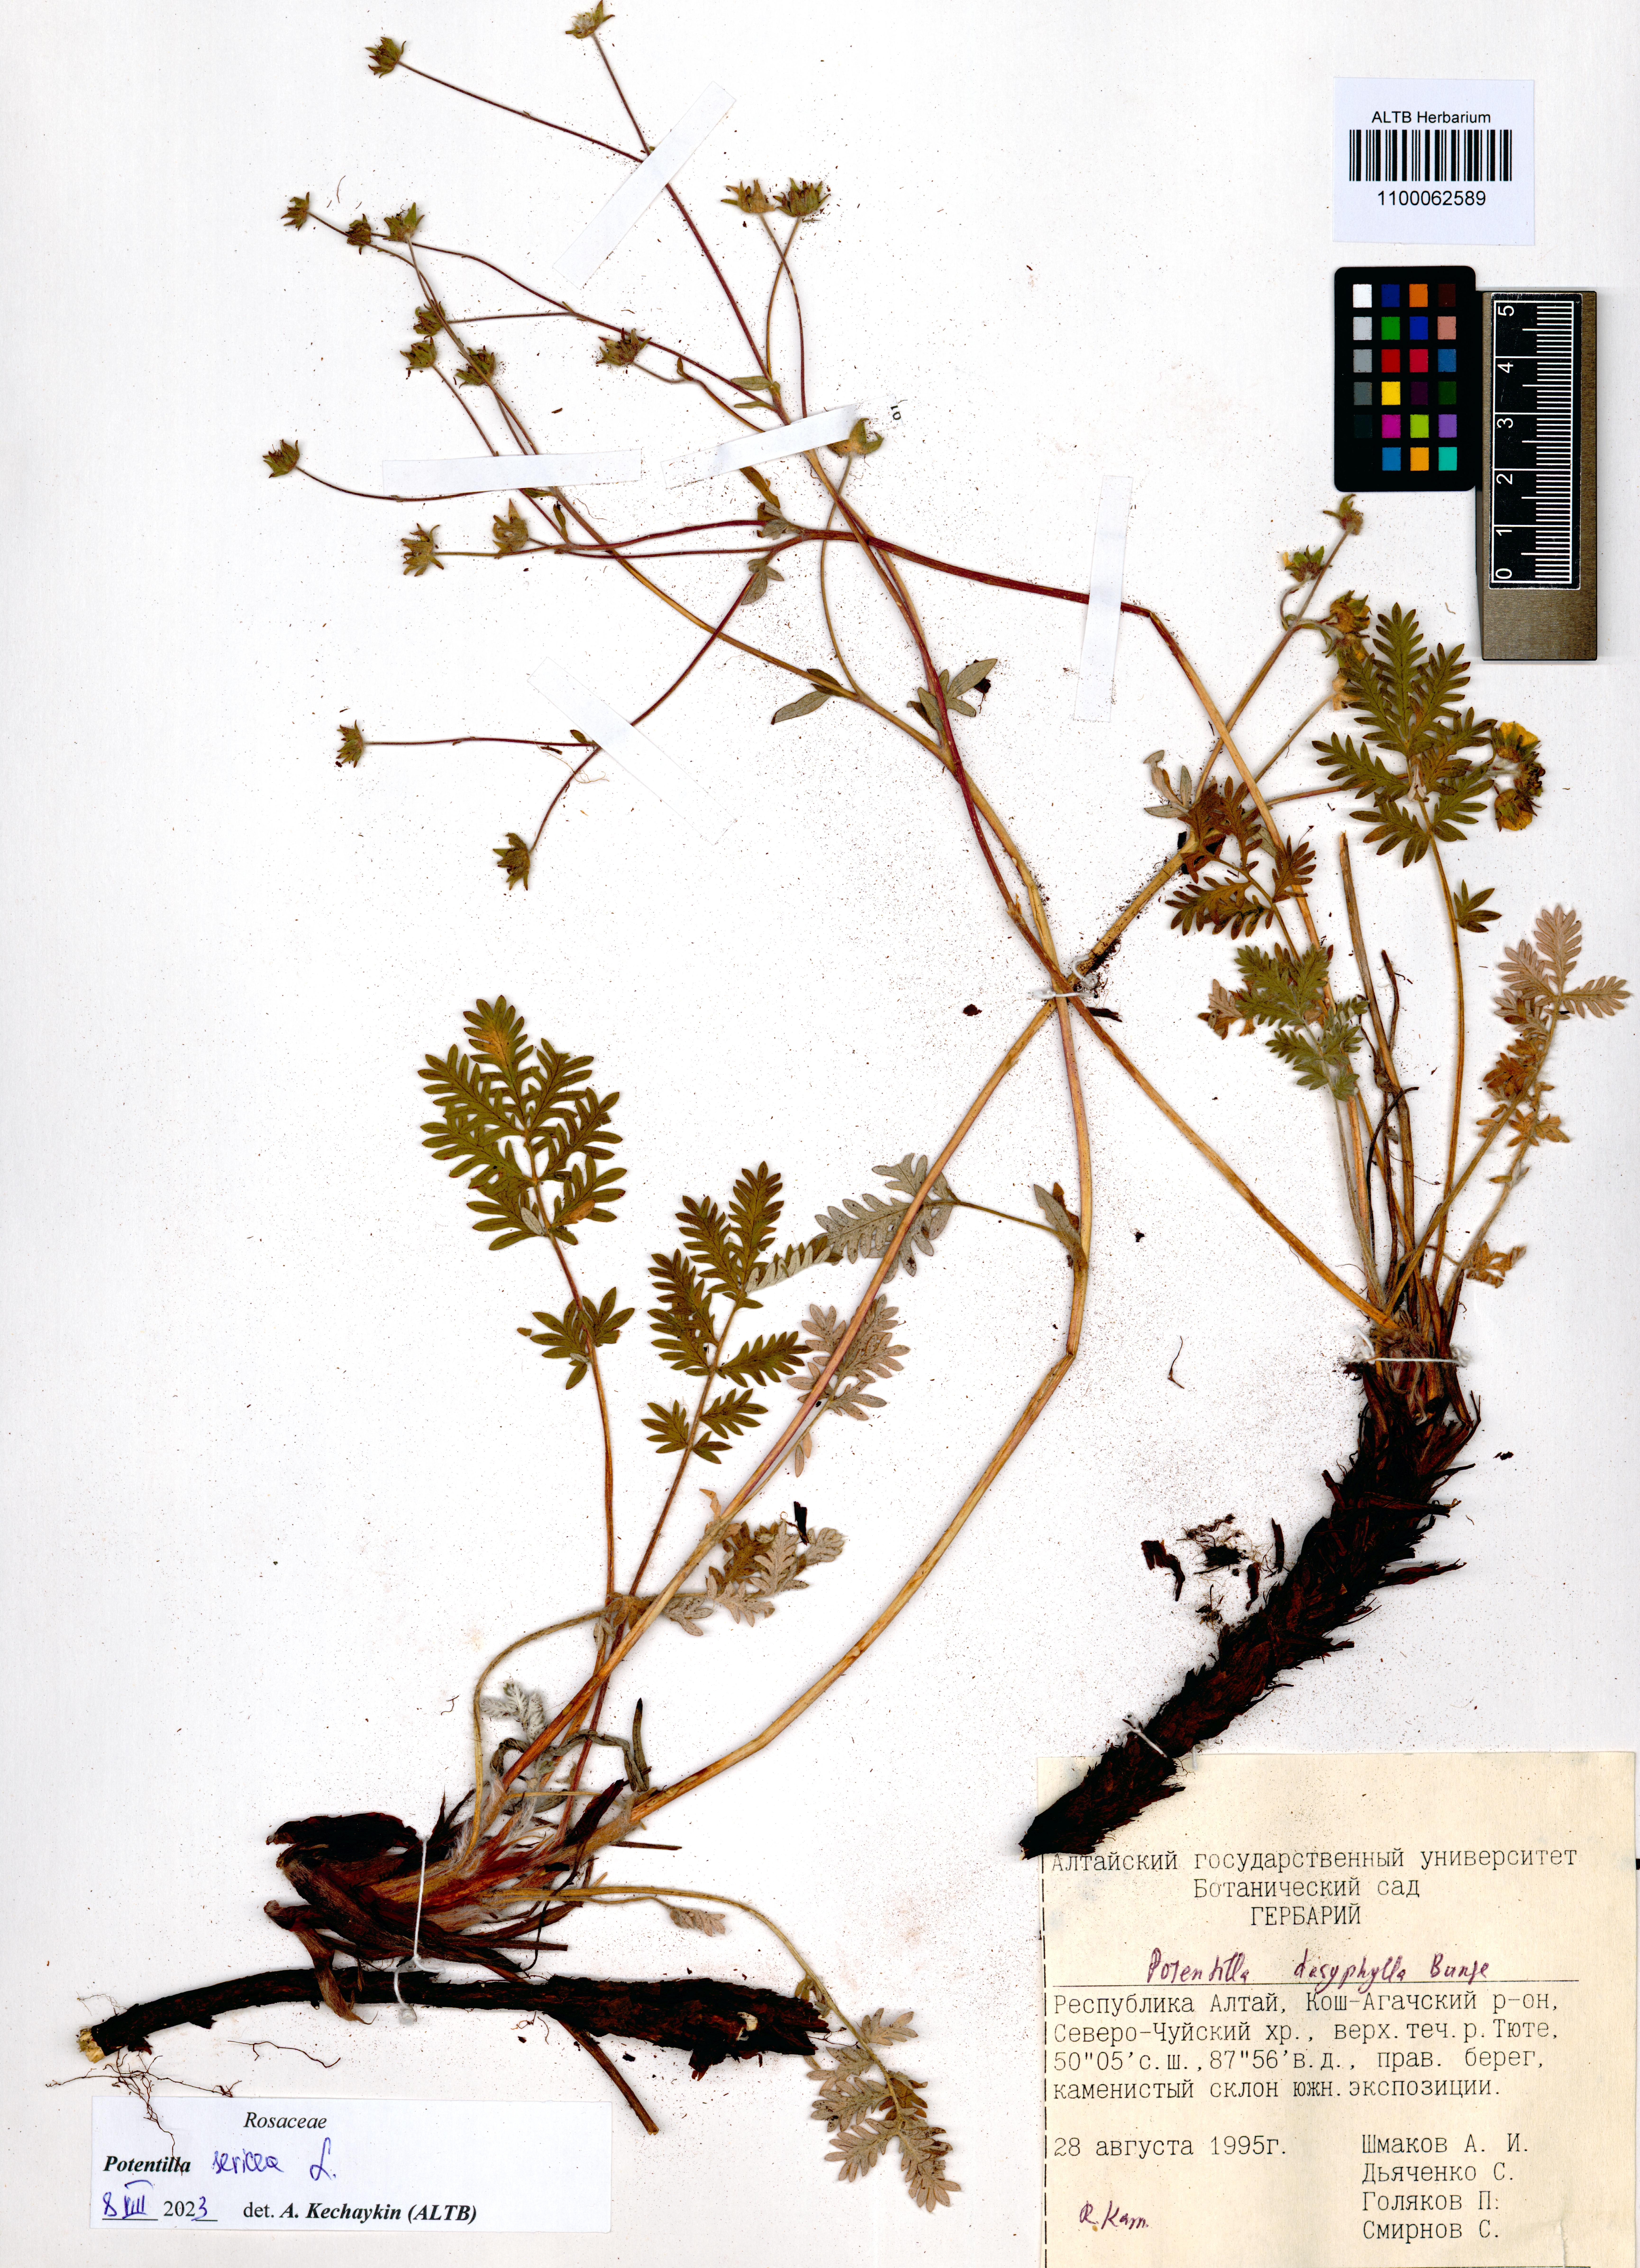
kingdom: Plantae
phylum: Tracheophyta
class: Magnoliopsida
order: Rosales
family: Rosaceae
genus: Potentilla
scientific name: Potentilla sericea
